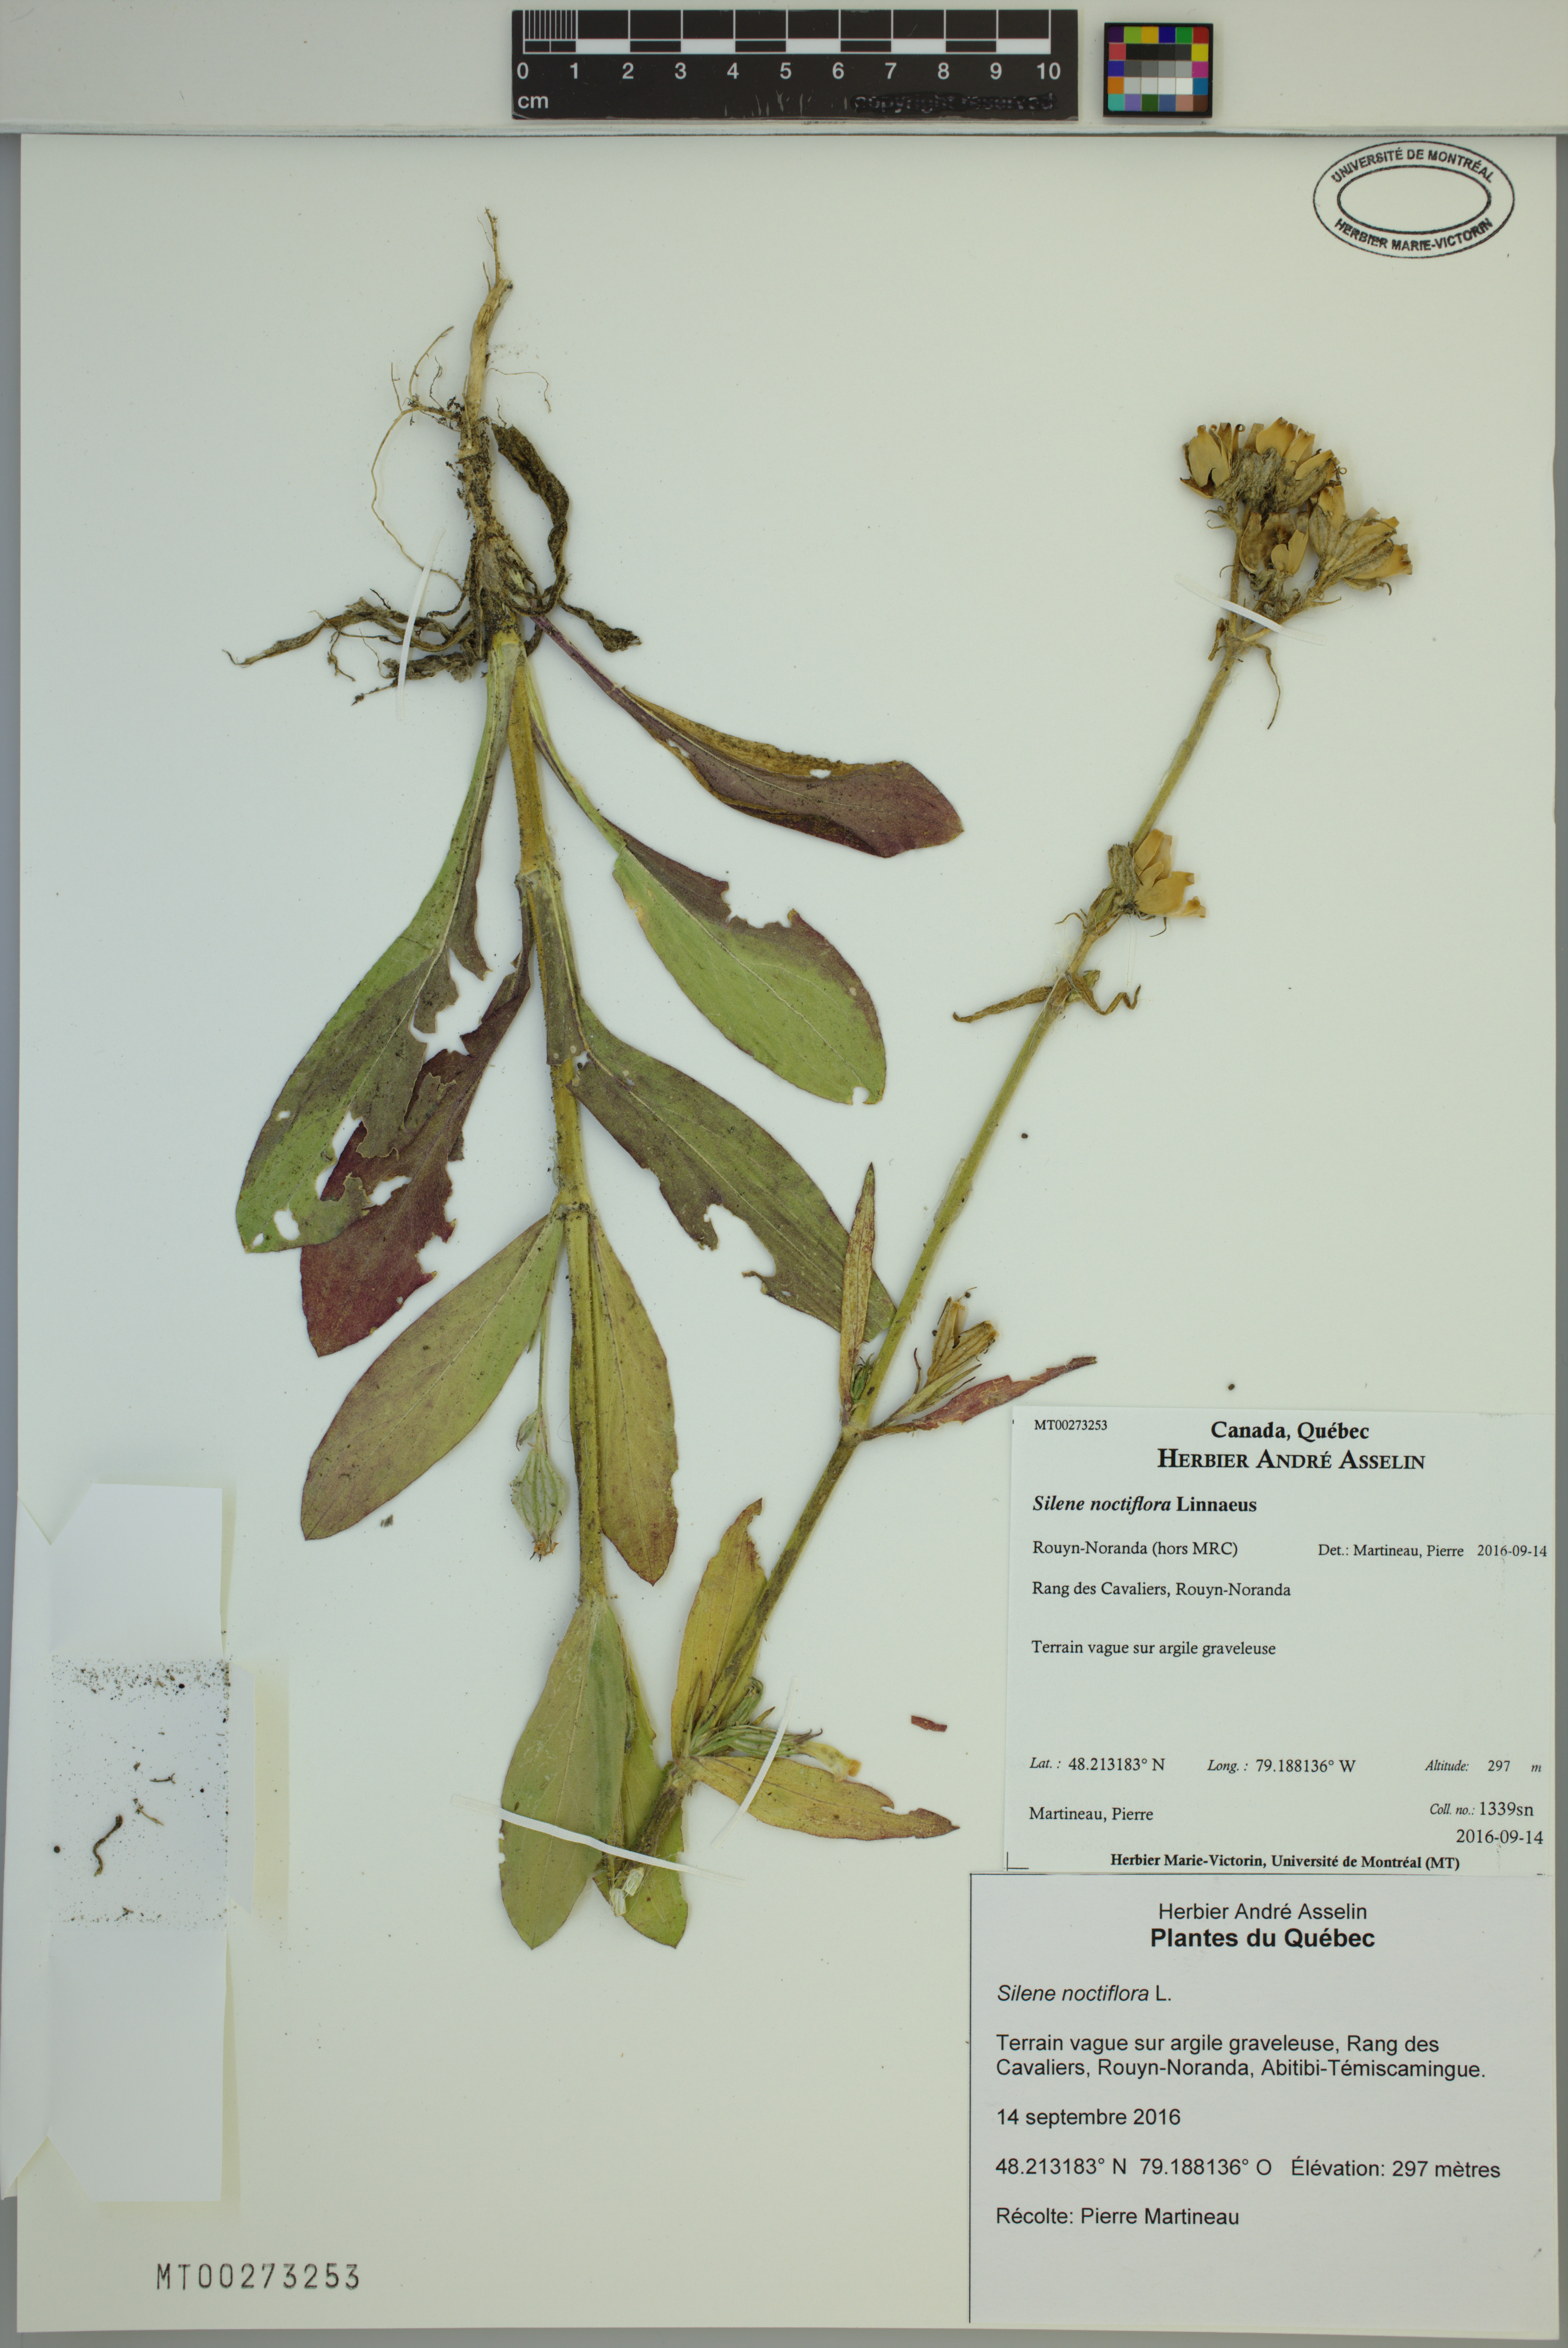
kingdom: Plantae
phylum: Tracheophyta
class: Magnoliopsida
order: Caryophyllales
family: Caryophyllaceae
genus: Silene
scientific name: Silene noctiflora
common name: Night-flowering catchfly
